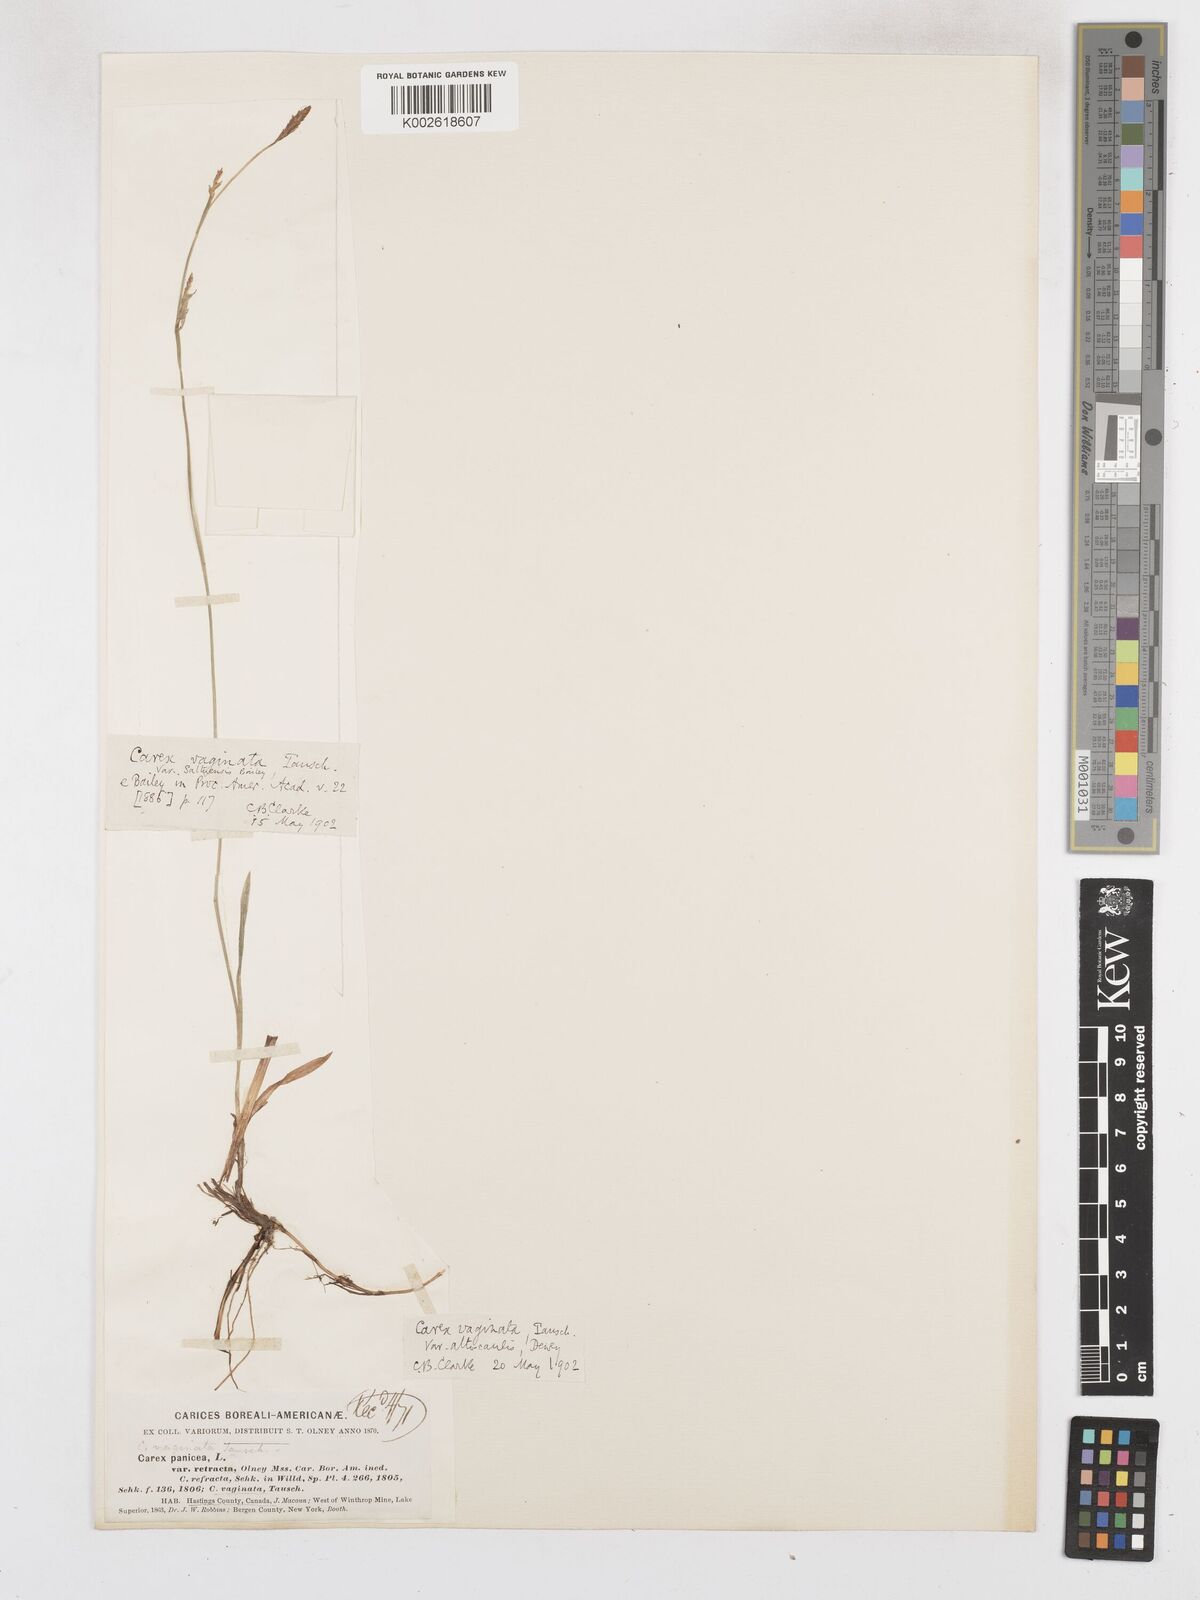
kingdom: Plantae
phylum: Tracheophyta
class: Liliopsida
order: Poales
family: Cyperaceae
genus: Carex
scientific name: Carex vaginata
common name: Sheathed sedge
